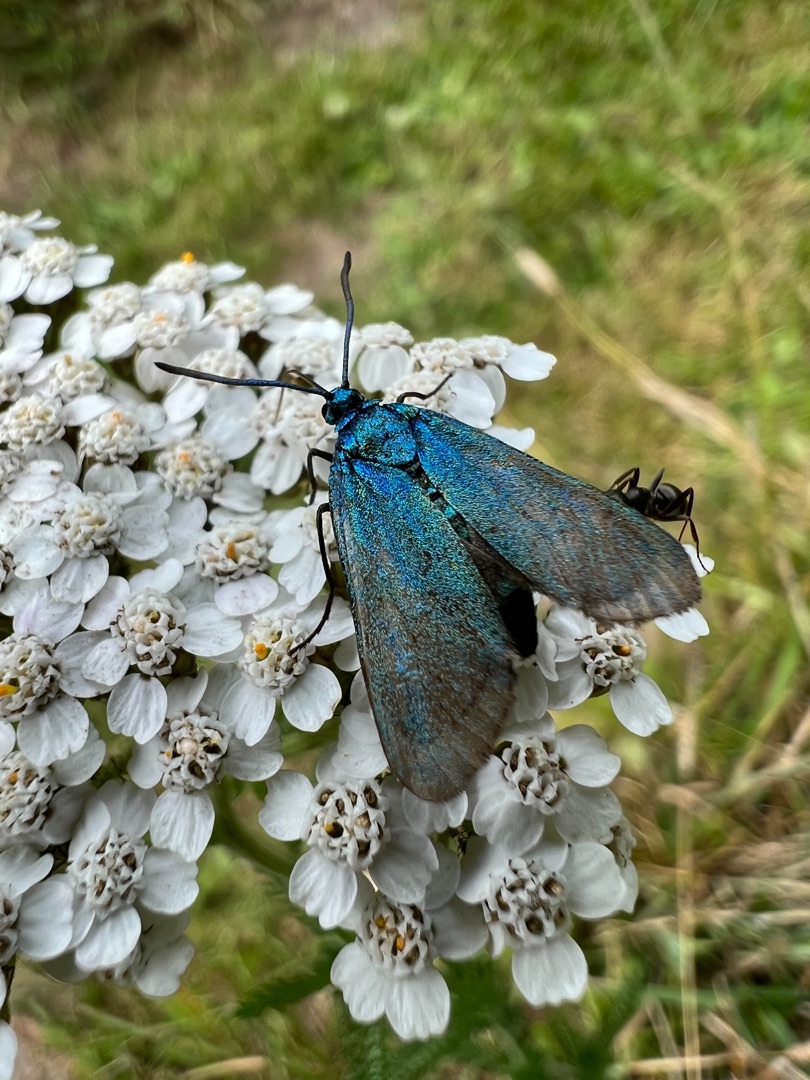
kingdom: Animalia
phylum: Arthropoda
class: Insecta
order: Lepidoptera
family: Zygaenidae
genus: Adscita
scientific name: Adscita statices
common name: Metalvinge
